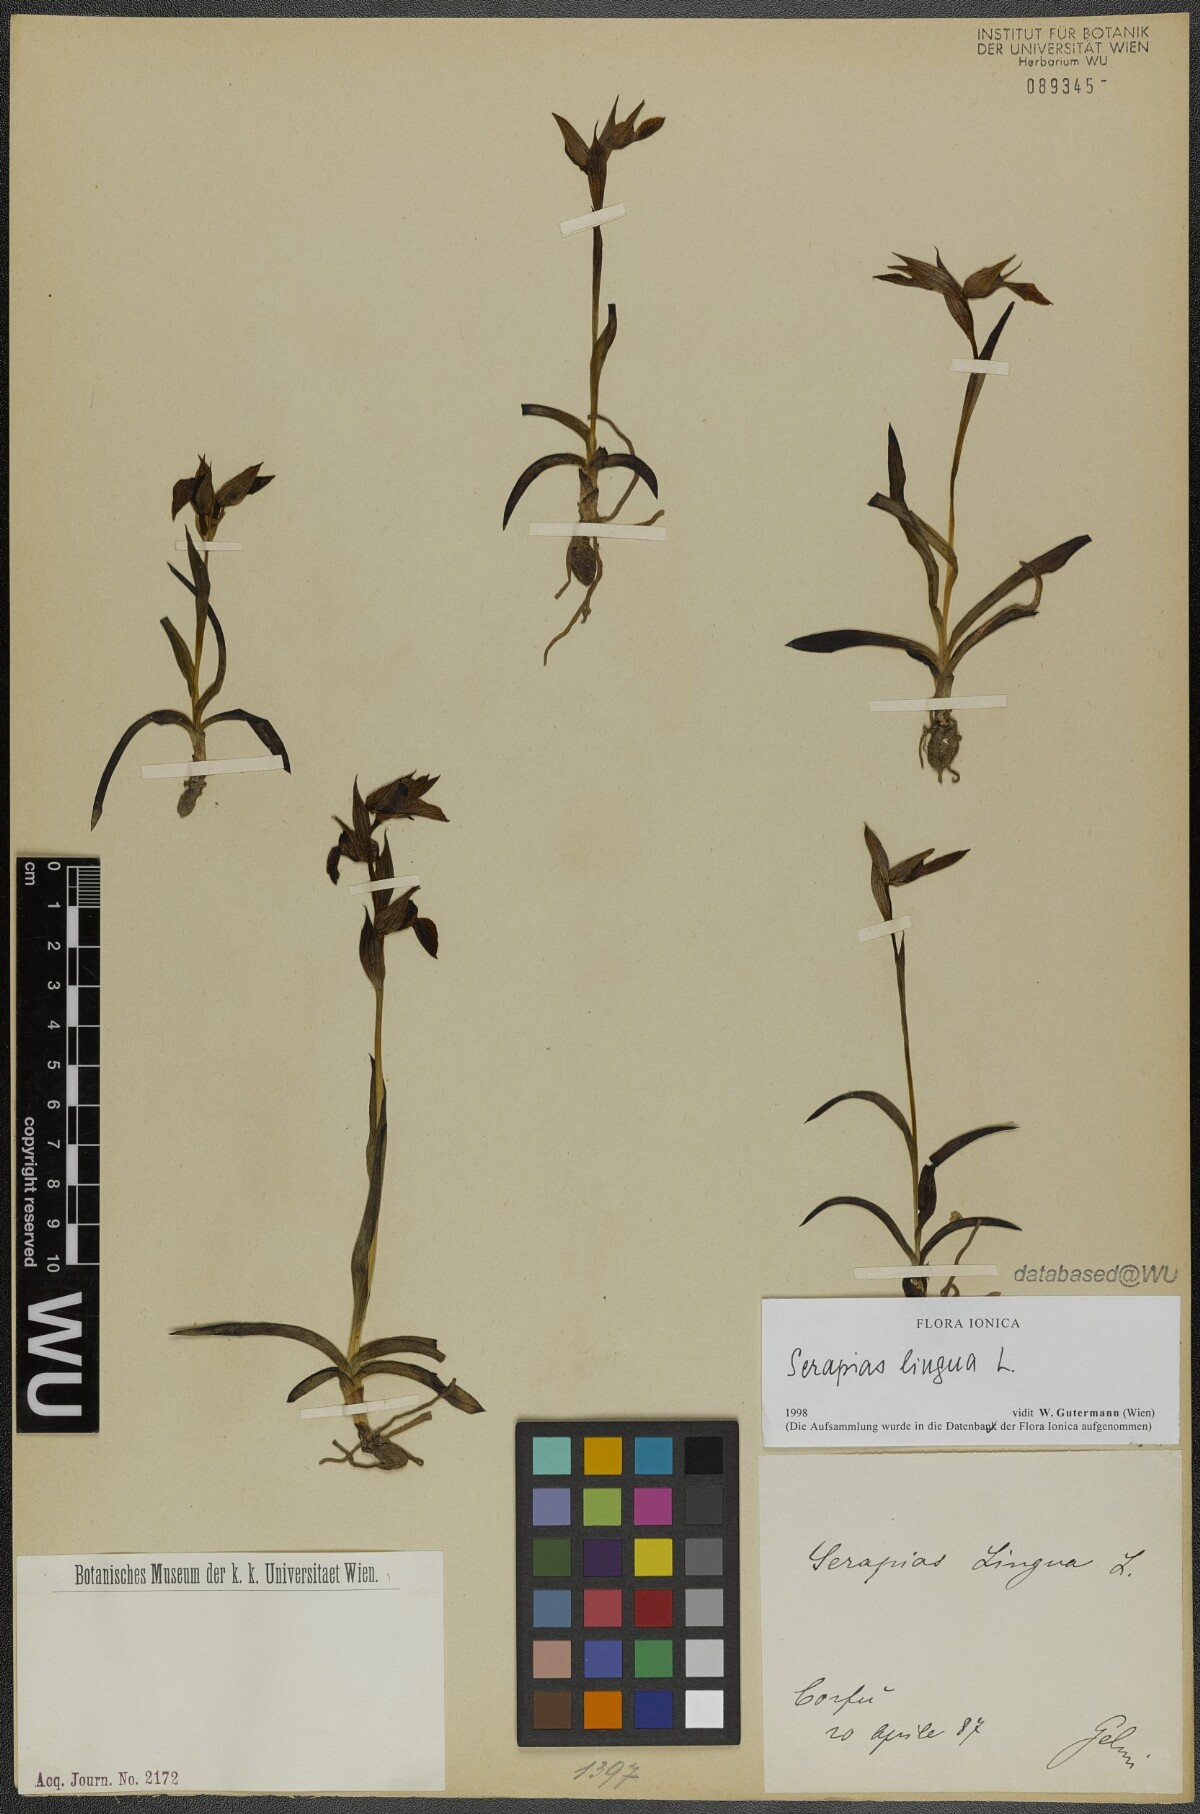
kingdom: Plantae
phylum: Tracheophyta
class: Liliopsida
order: Asparagales
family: Orchidaceae
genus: Serapias
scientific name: Serapias lingua
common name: Tongue-orchid
